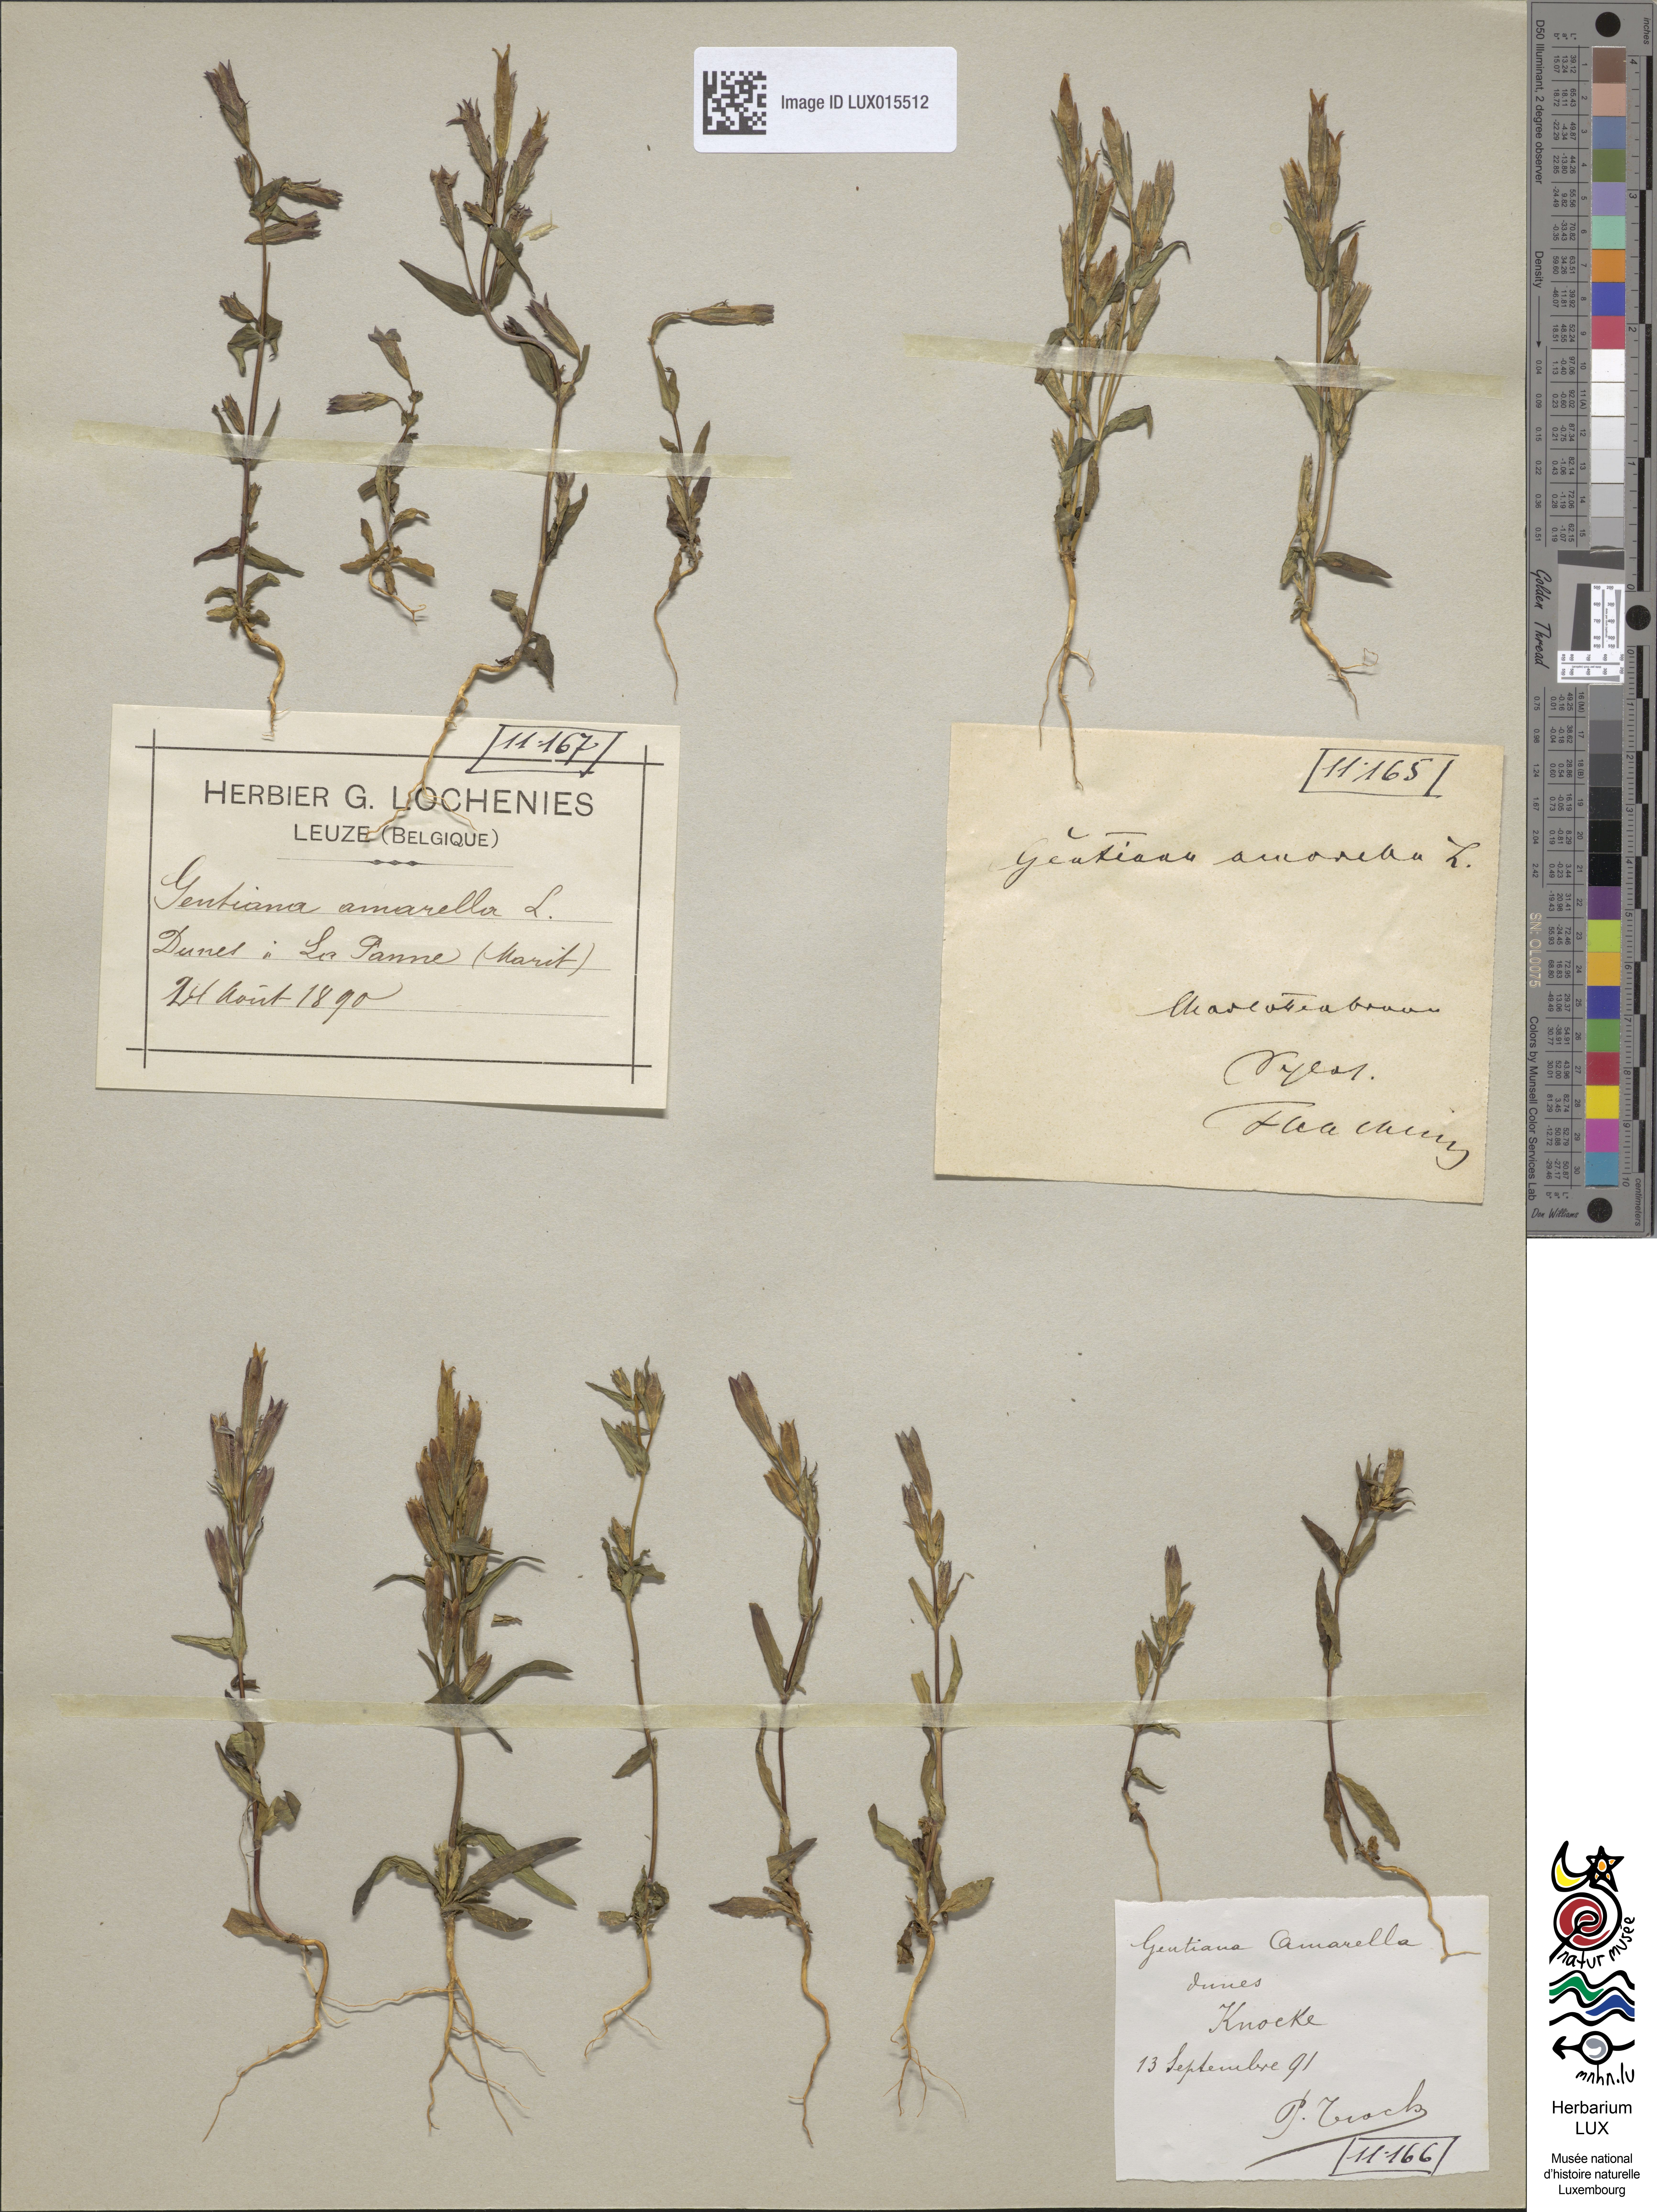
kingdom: Plantae
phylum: Tracheophyta
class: Magnoliopsida
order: Gentianales
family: Gentianaceae
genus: Gentianella
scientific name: Gentianella amarella
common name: Autumn gentian
